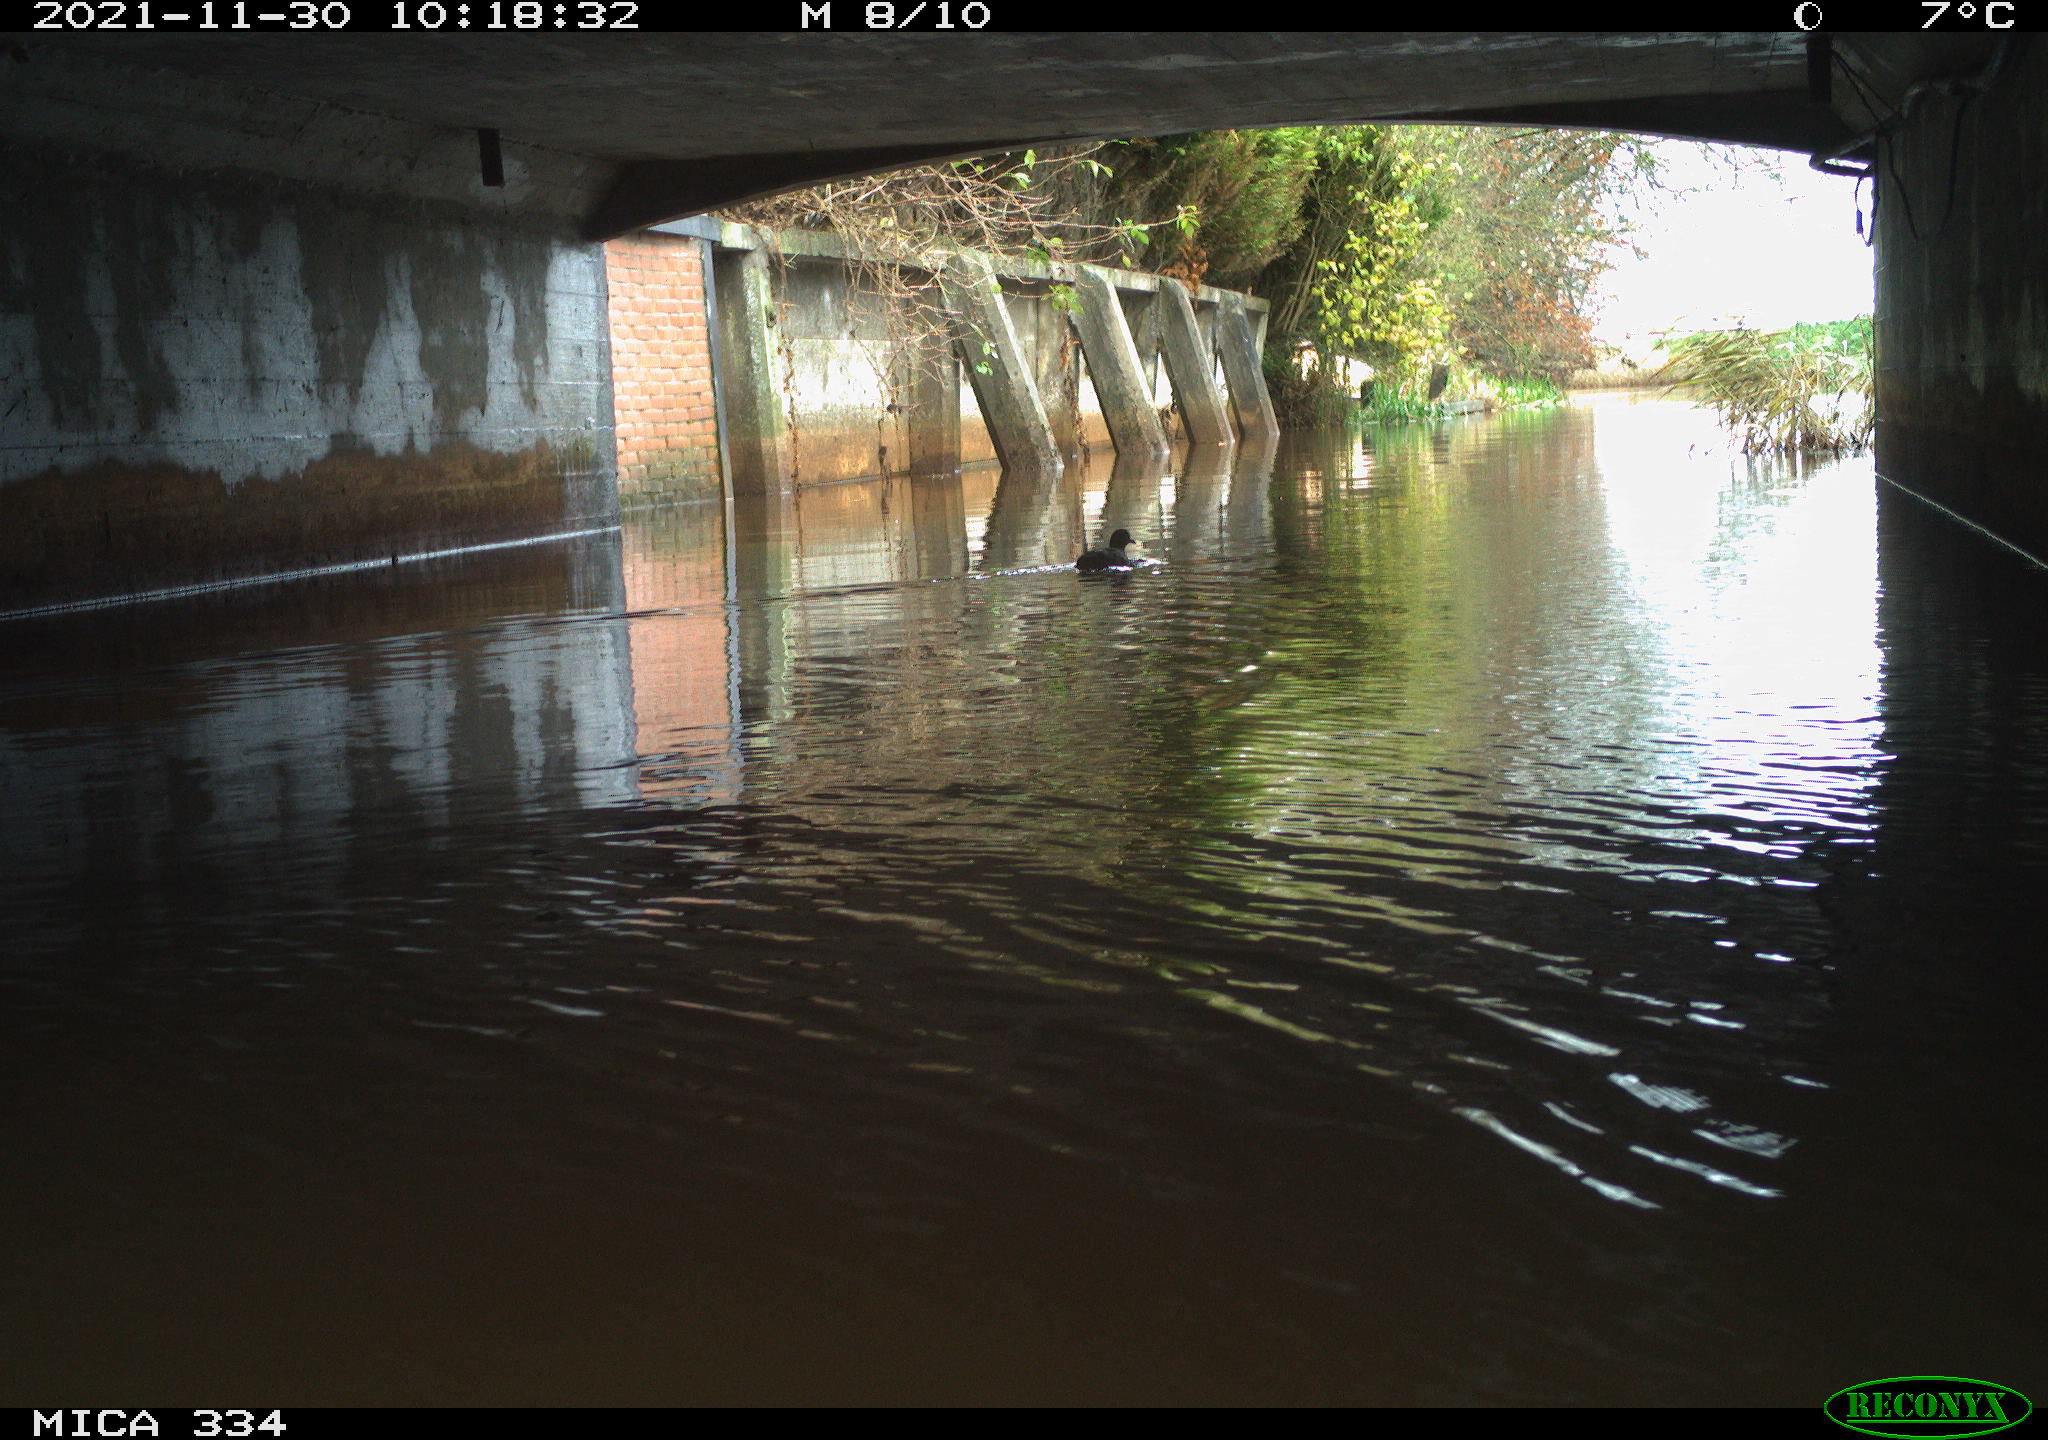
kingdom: Animalia
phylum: Chordata
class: Aves
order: Gruiformes
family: Rallidae
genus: Fulica
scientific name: Fulica atra
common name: Eurasian coot
